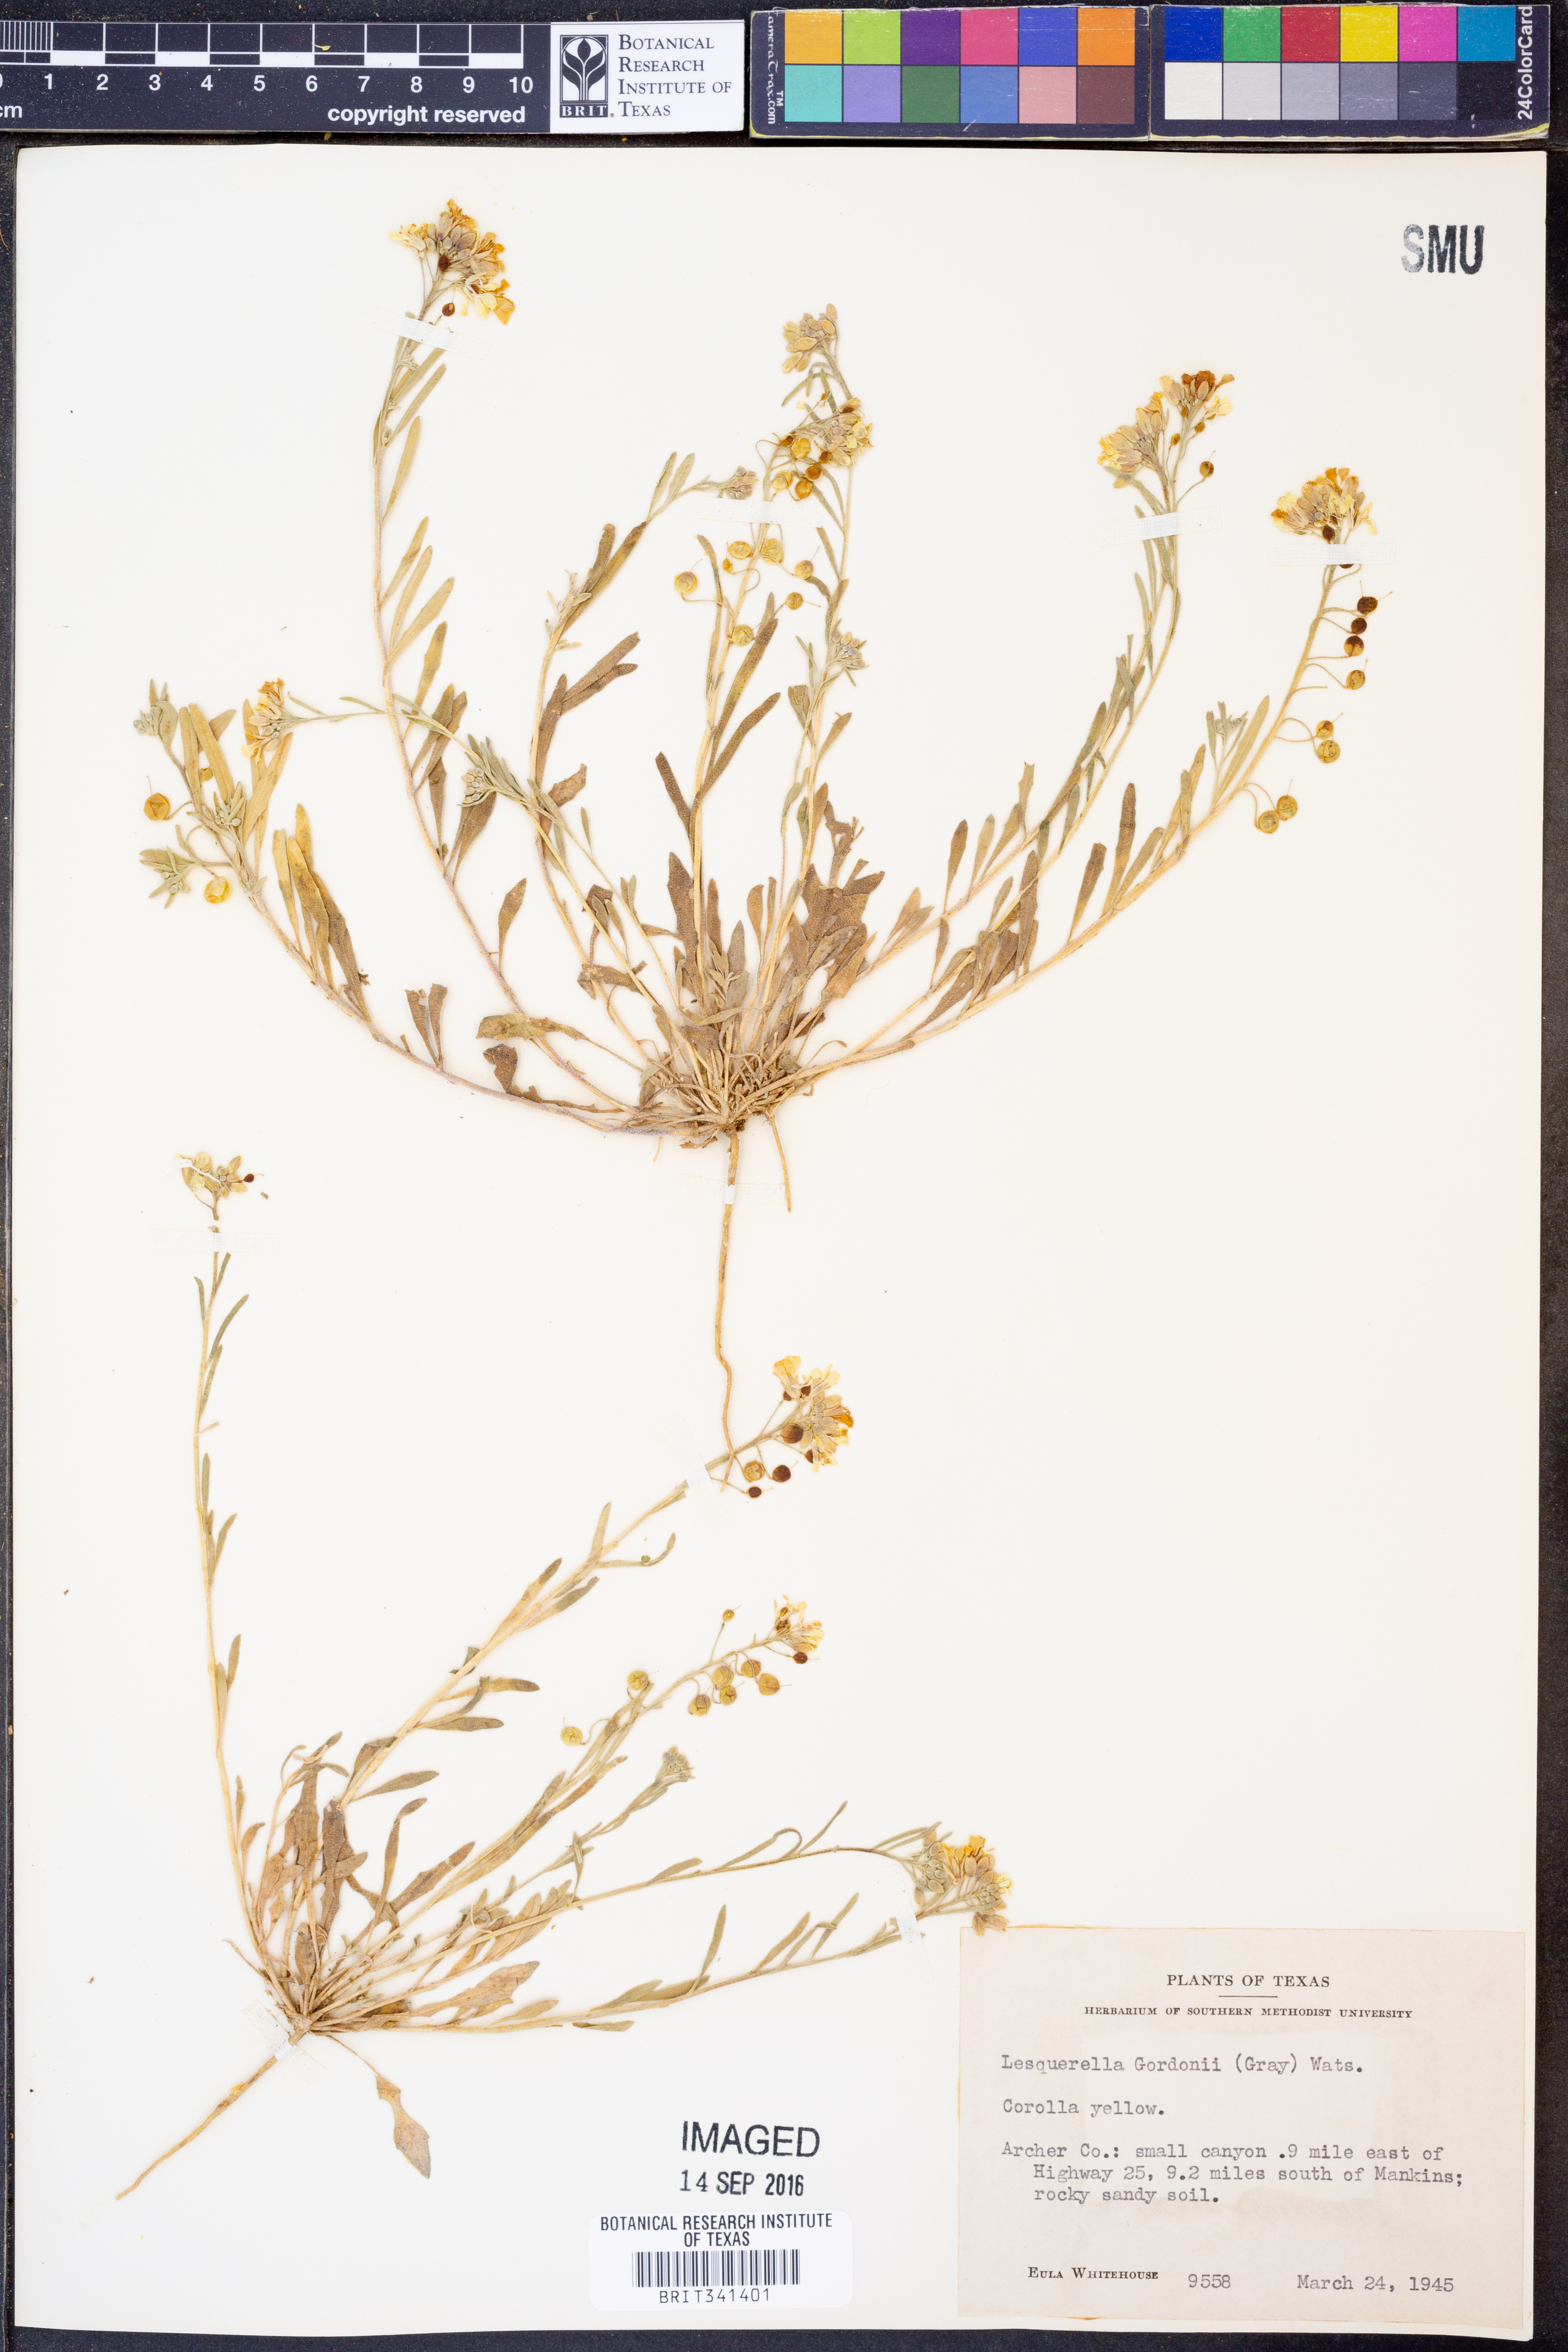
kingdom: Plantae
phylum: Tracheophyta
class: Magnoliopsida
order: Brassicales
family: Brassicaceae
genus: Physaria
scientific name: Physaria gordonii
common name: Gordon's bladderpod
